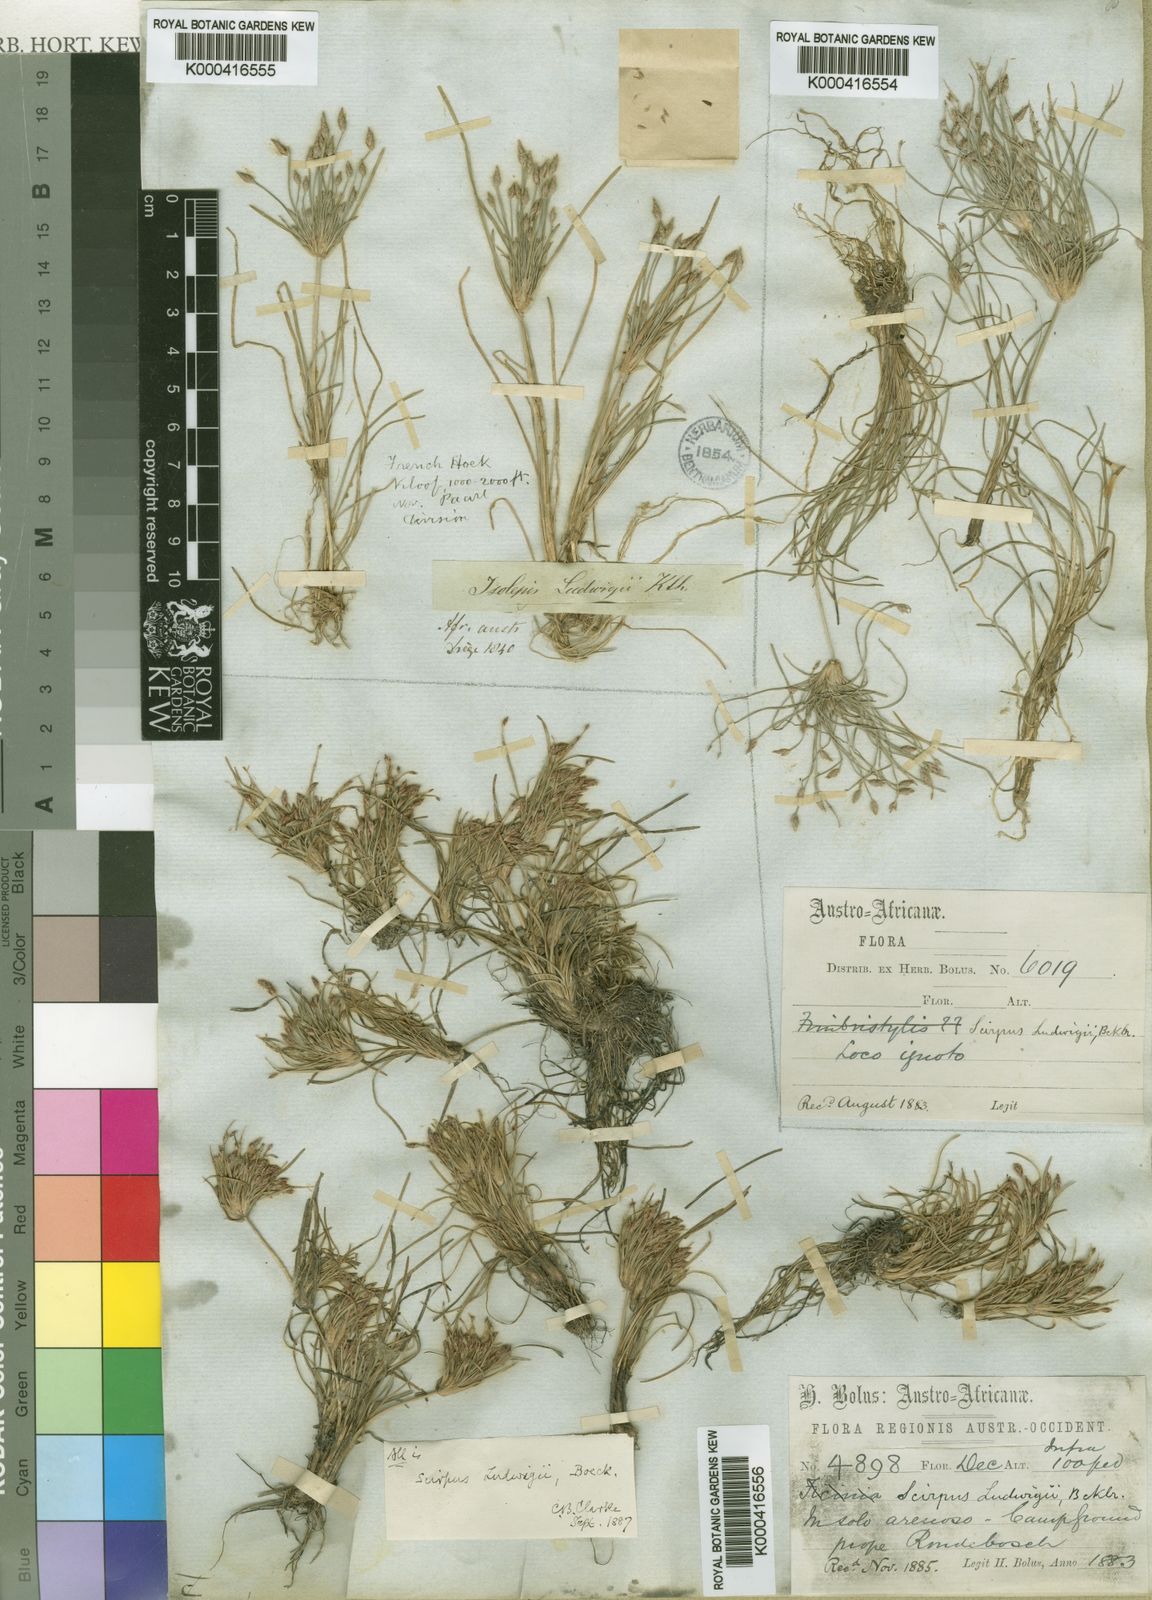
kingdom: Plantae
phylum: Tracheophyta
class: Liliopsida
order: Poales
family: Cyperaceae
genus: Isolepis
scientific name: Isolepis ludwigii
